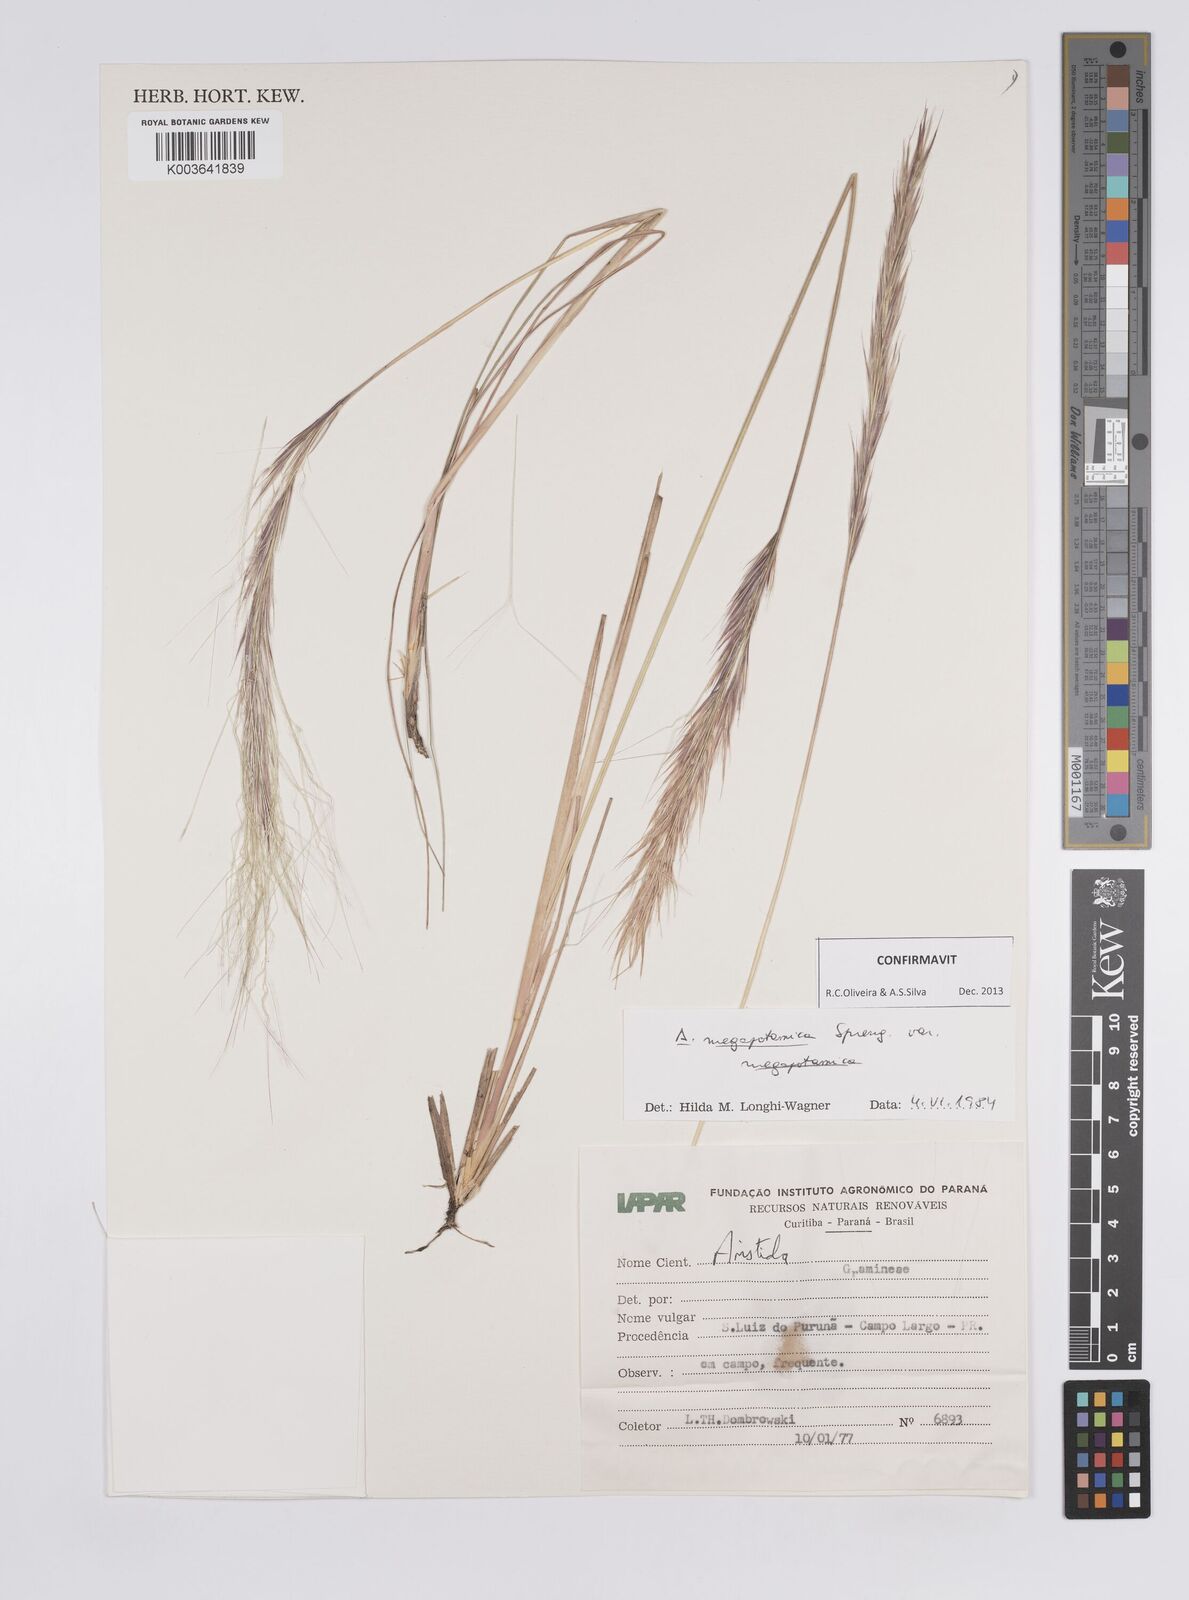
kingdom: Plantae
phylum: Tracheophyta
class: Liliopsida
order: Poales
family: Poaceae
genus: Aristida
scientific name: Aristida megapotamica
